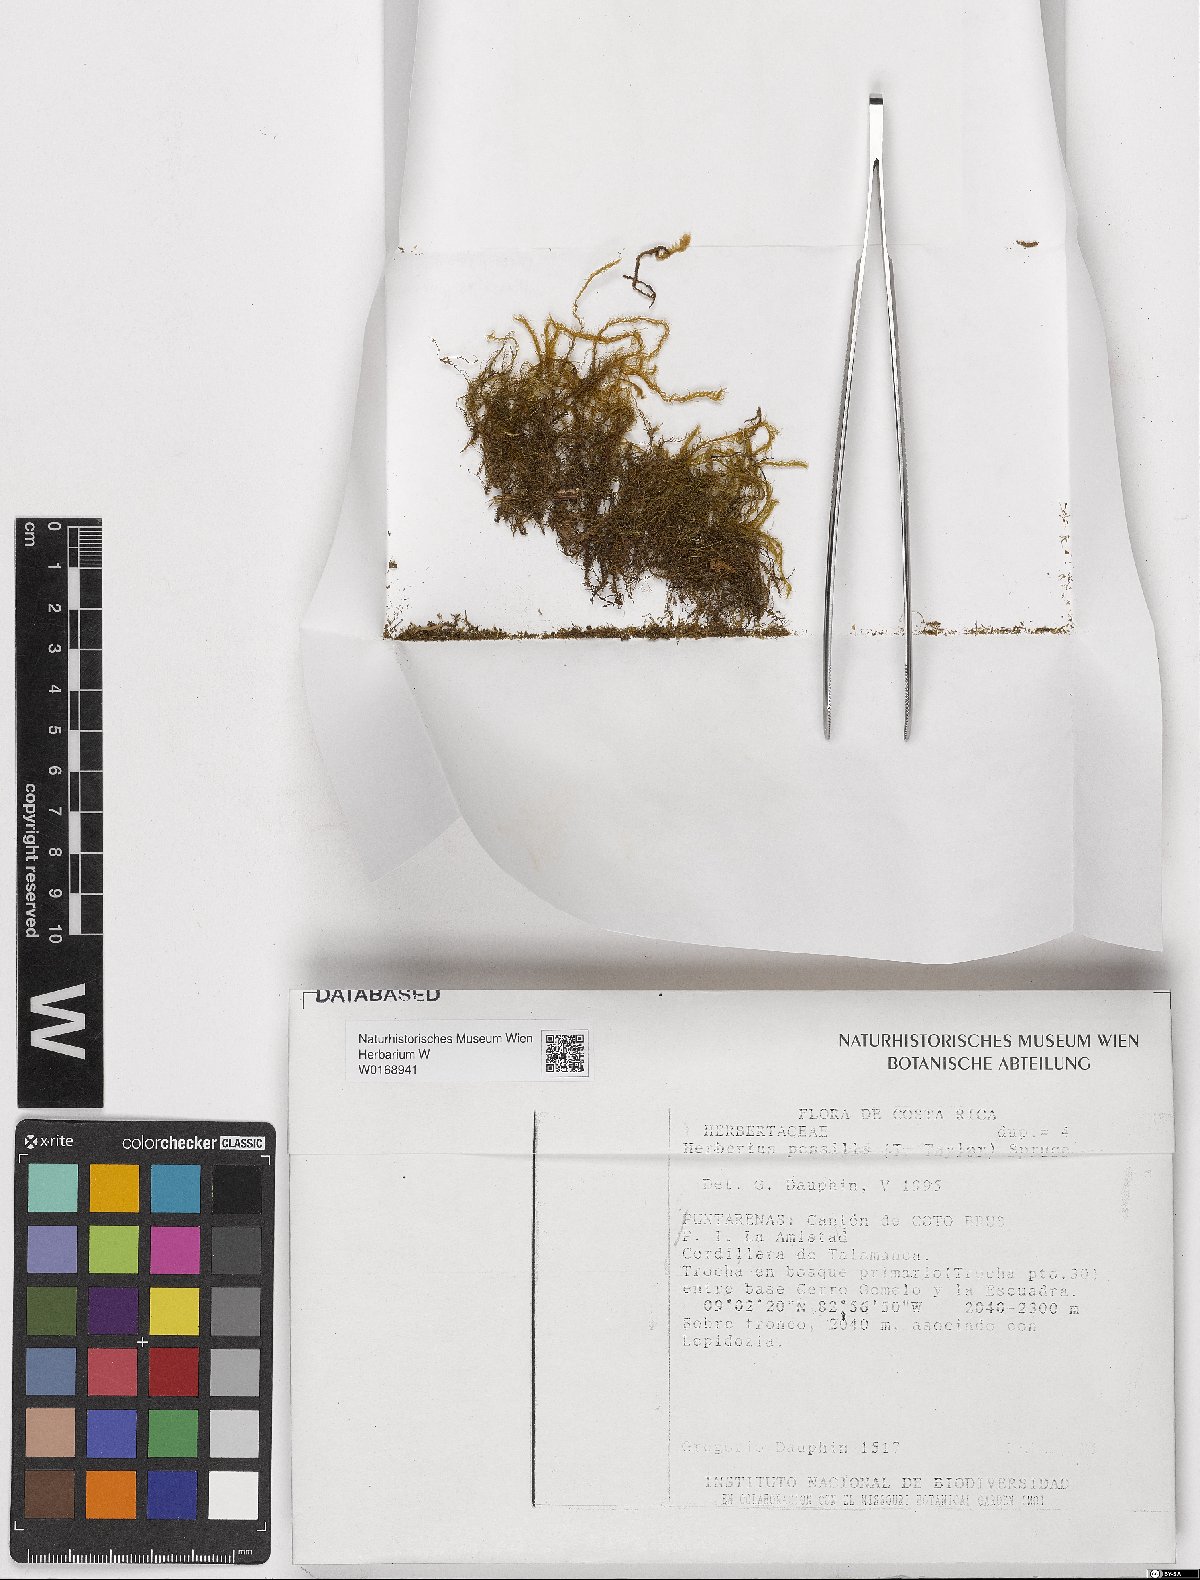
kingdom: Plantae
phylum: Marchantiophyta
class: Jungermanniopsida
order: Jungermanniales
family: Herbertaceae
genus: Herbertus
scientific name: Herbertus juniperoideus
